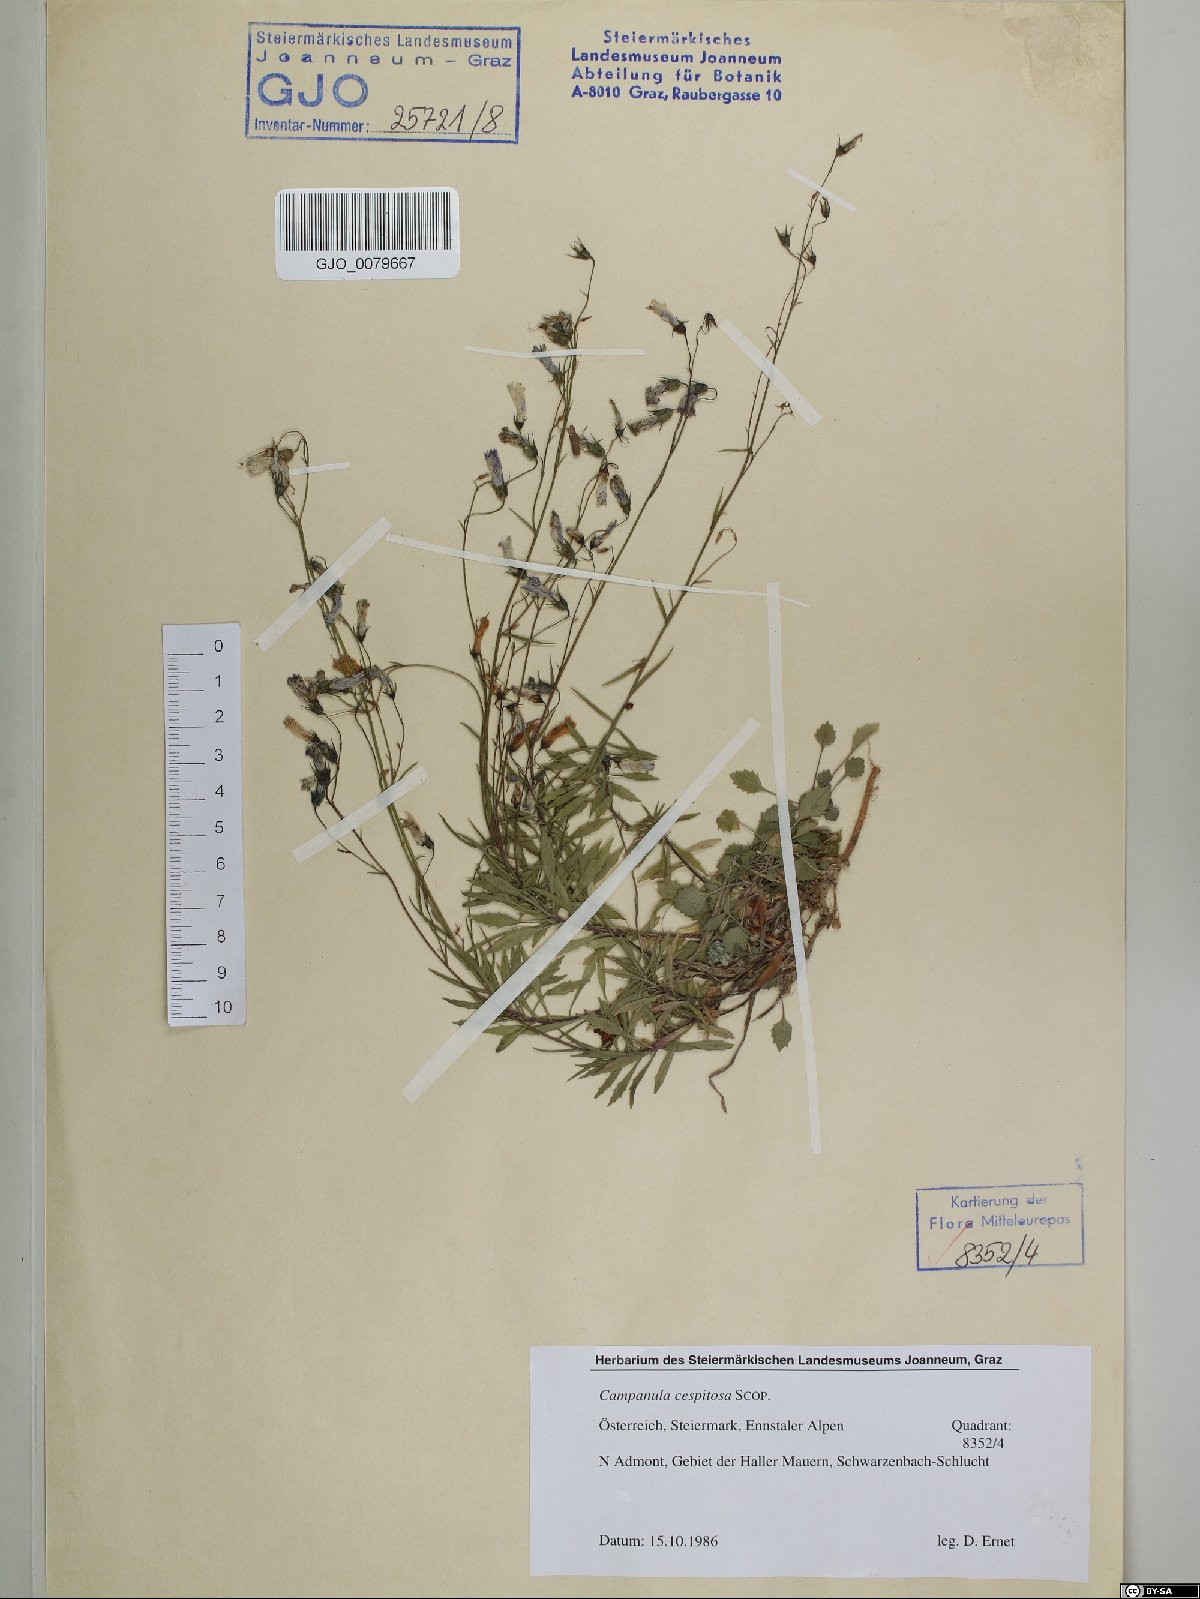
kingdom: Plantae
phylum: Tracheophyta
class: Magnoliopsida
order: Asterales
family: Campanulaceae
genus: Campanula
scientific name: Campanula cespitosa
